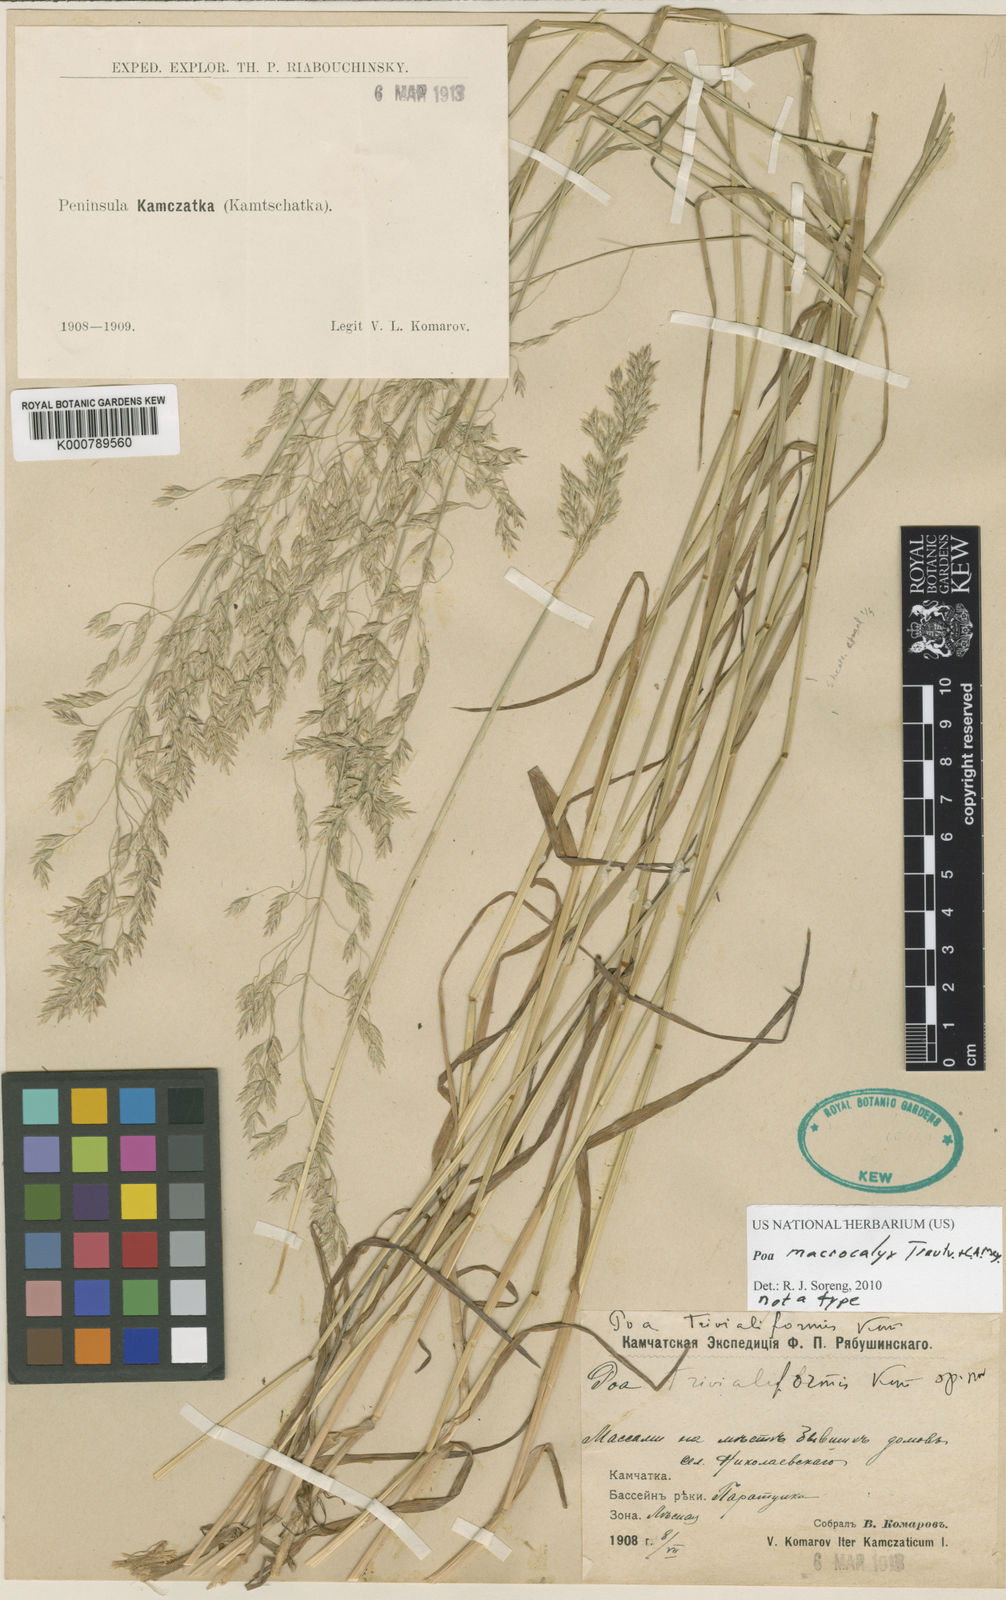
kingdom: Plantae
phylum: Tracheophyta
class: Liliopsida
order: Poales
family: Poaceae
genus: Poa
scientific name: Poa macrocalyx
